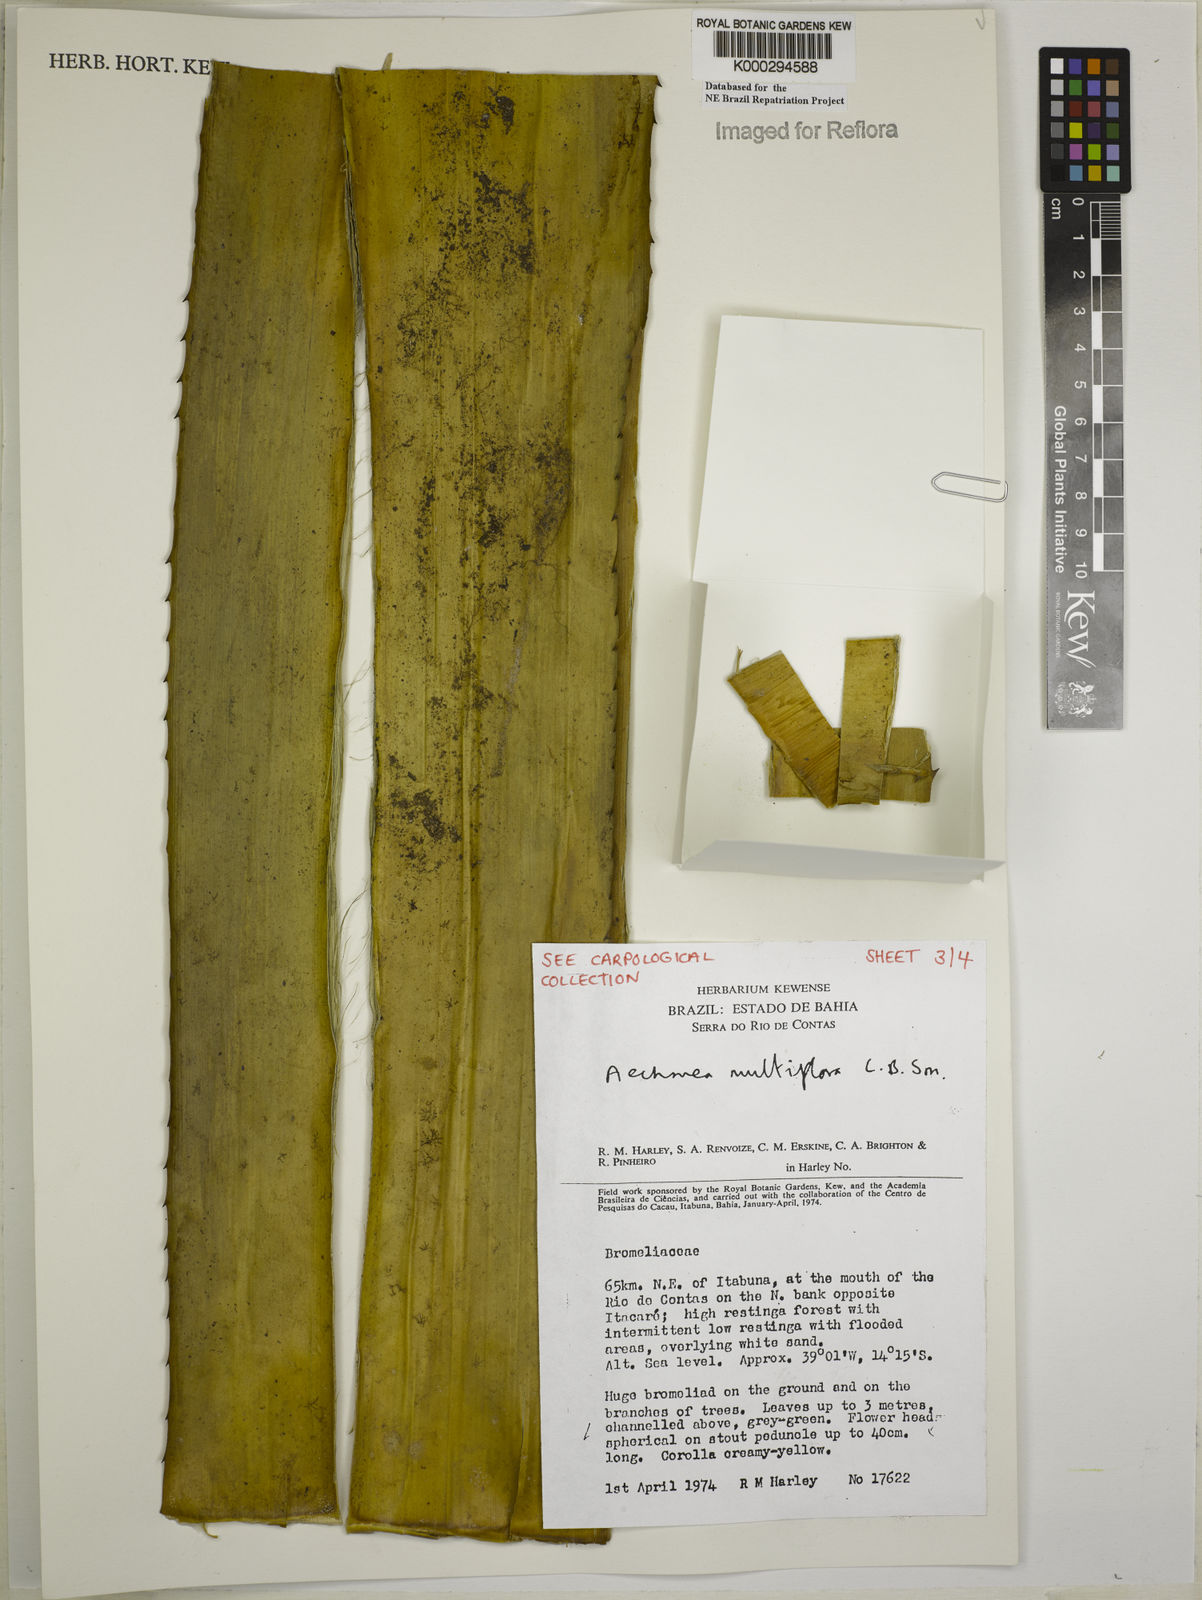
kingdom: Plantae
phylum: Tracheophyta
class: Liliopsida
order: Poales
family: Bromeliaceae
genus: Karawata
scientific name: Karawata multiflora
